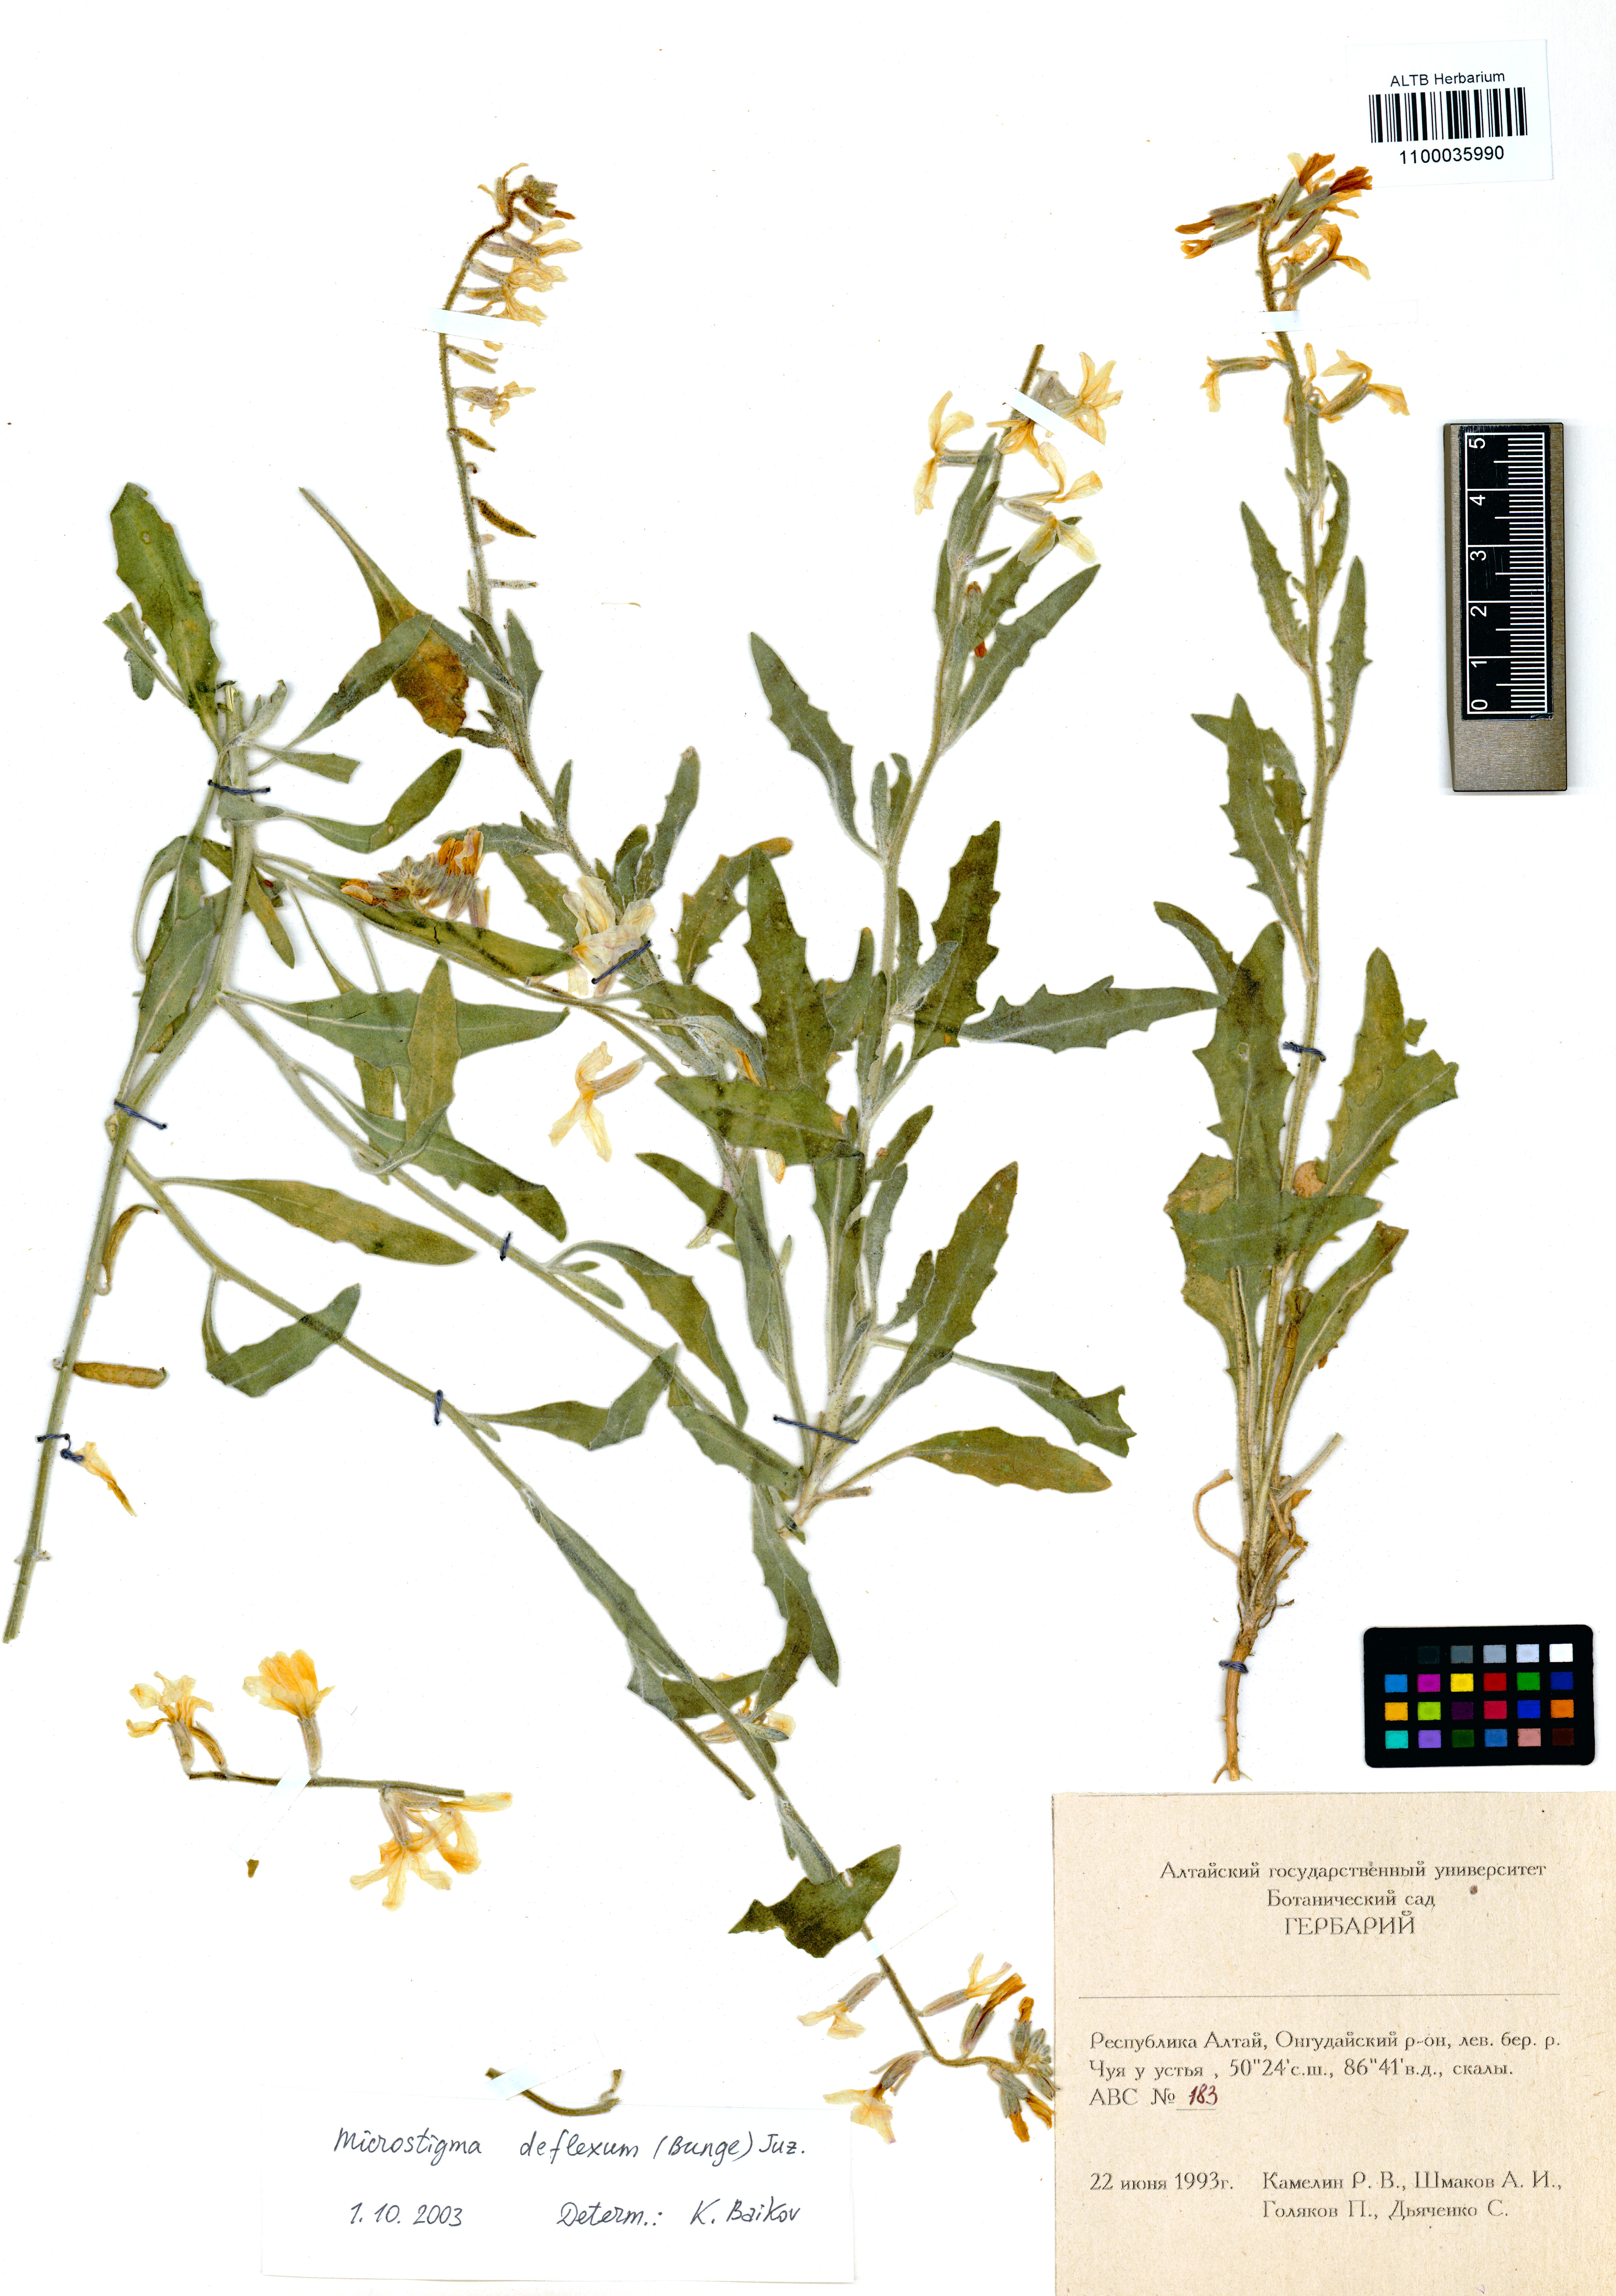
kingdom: Plantae
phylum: Tracheophyta
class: Magnoliopsida
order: Brassicales
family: Brassicaceae
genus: Microstigma
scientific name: Microstigma deflexum
